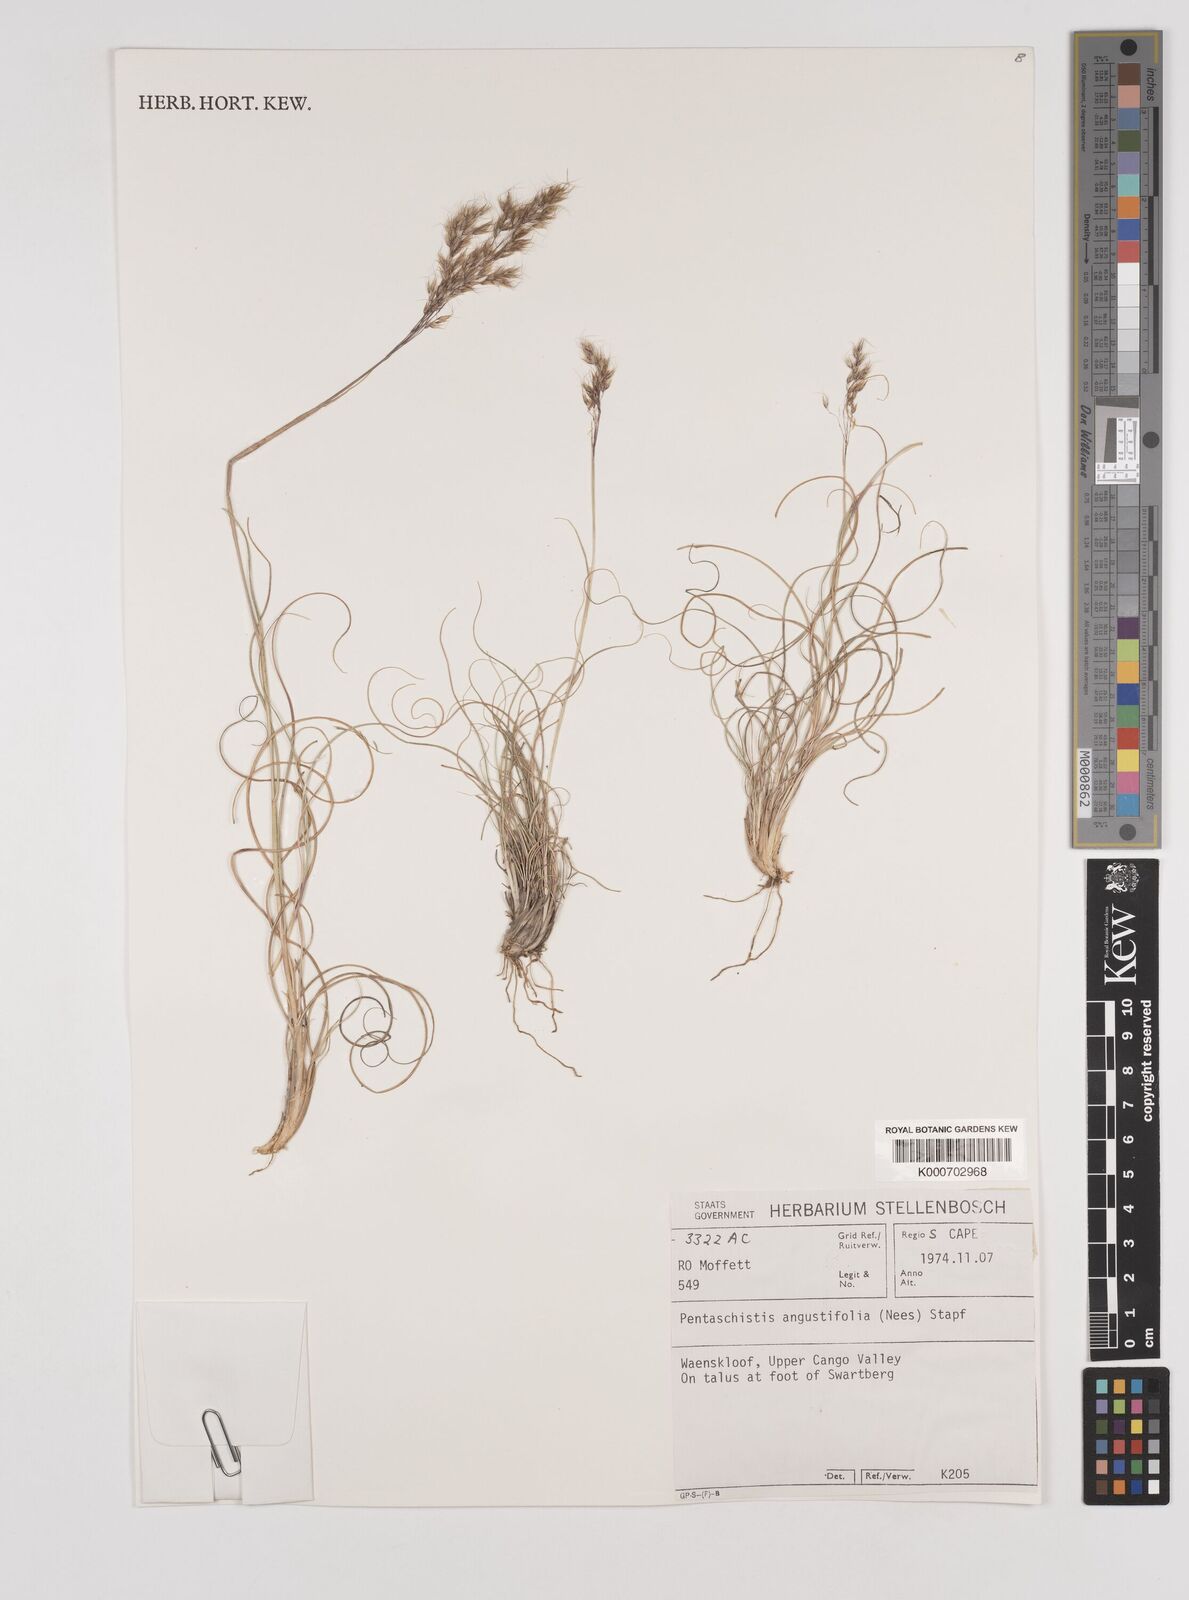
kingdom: Plantae
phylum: Tracheophyta
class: Liliopsida
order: Poales
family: Poaceae
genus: Pentameris
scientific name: Pentameris pallida
